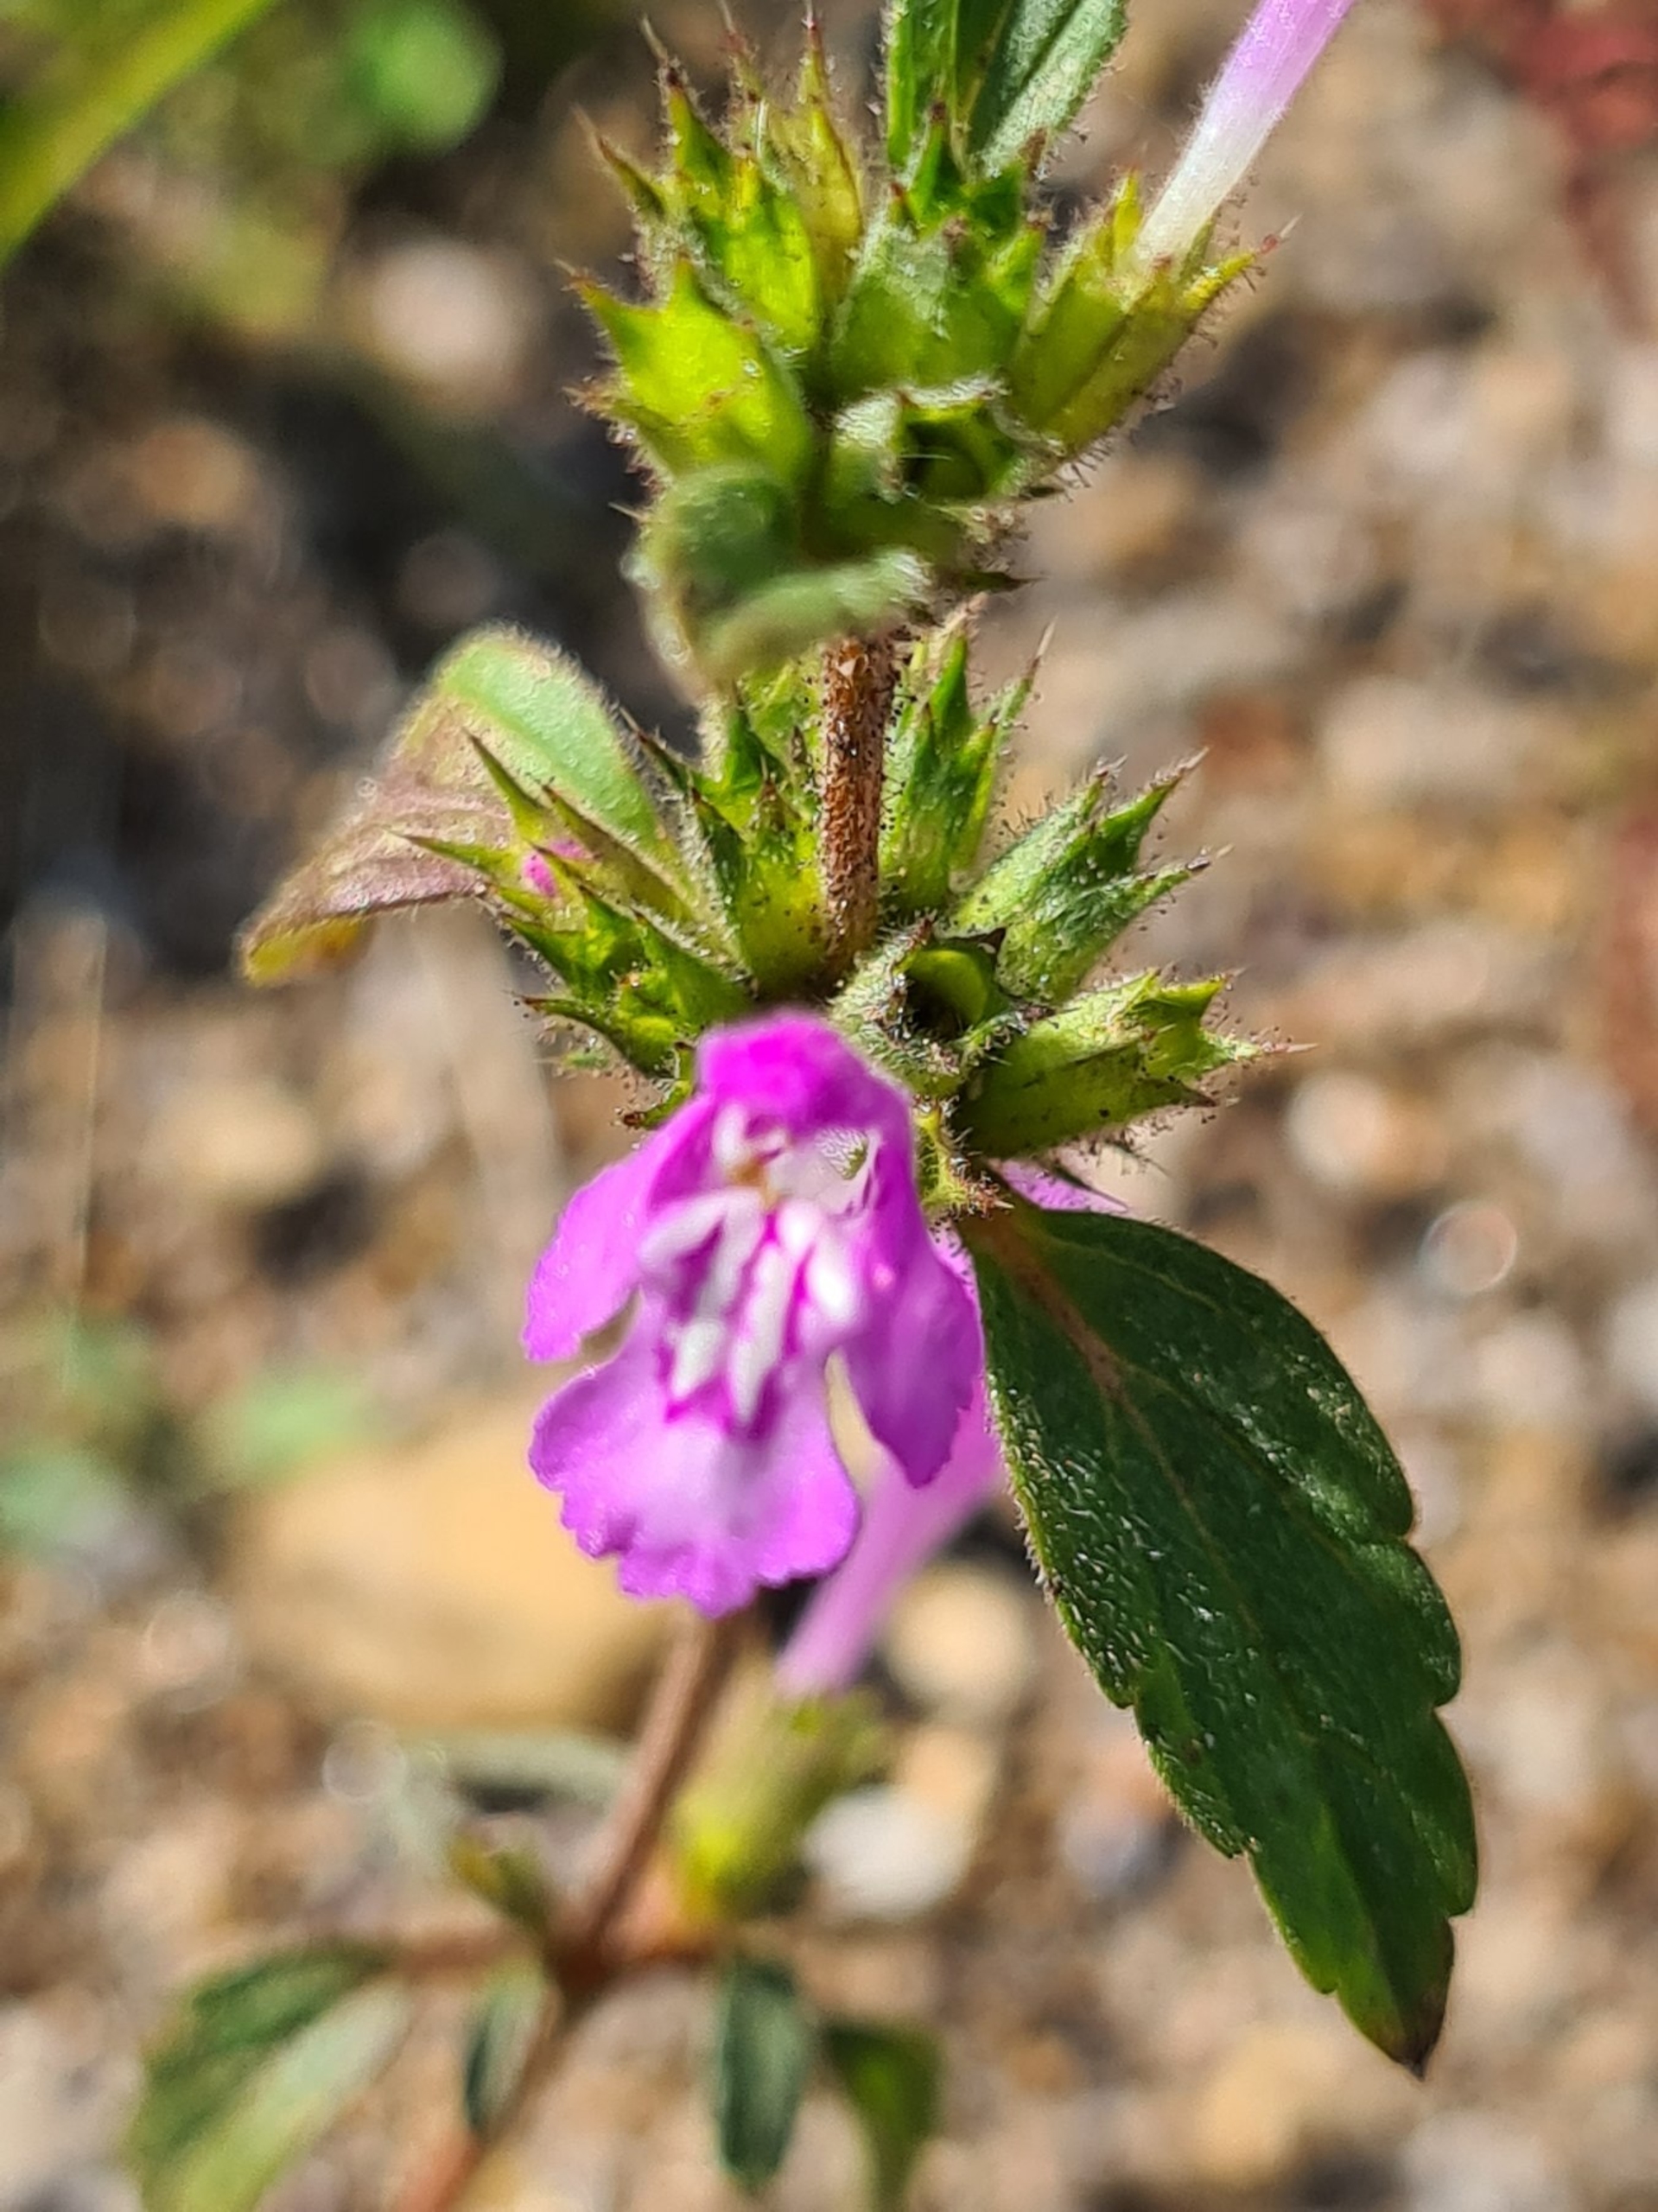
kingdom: Plantae
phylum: Tracheophyta
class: Magnoliopsida
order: Lamiales
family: Lamiaceae
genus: Galeopsis
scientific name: Galeopsis ladanum
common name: Sand-hanekro
